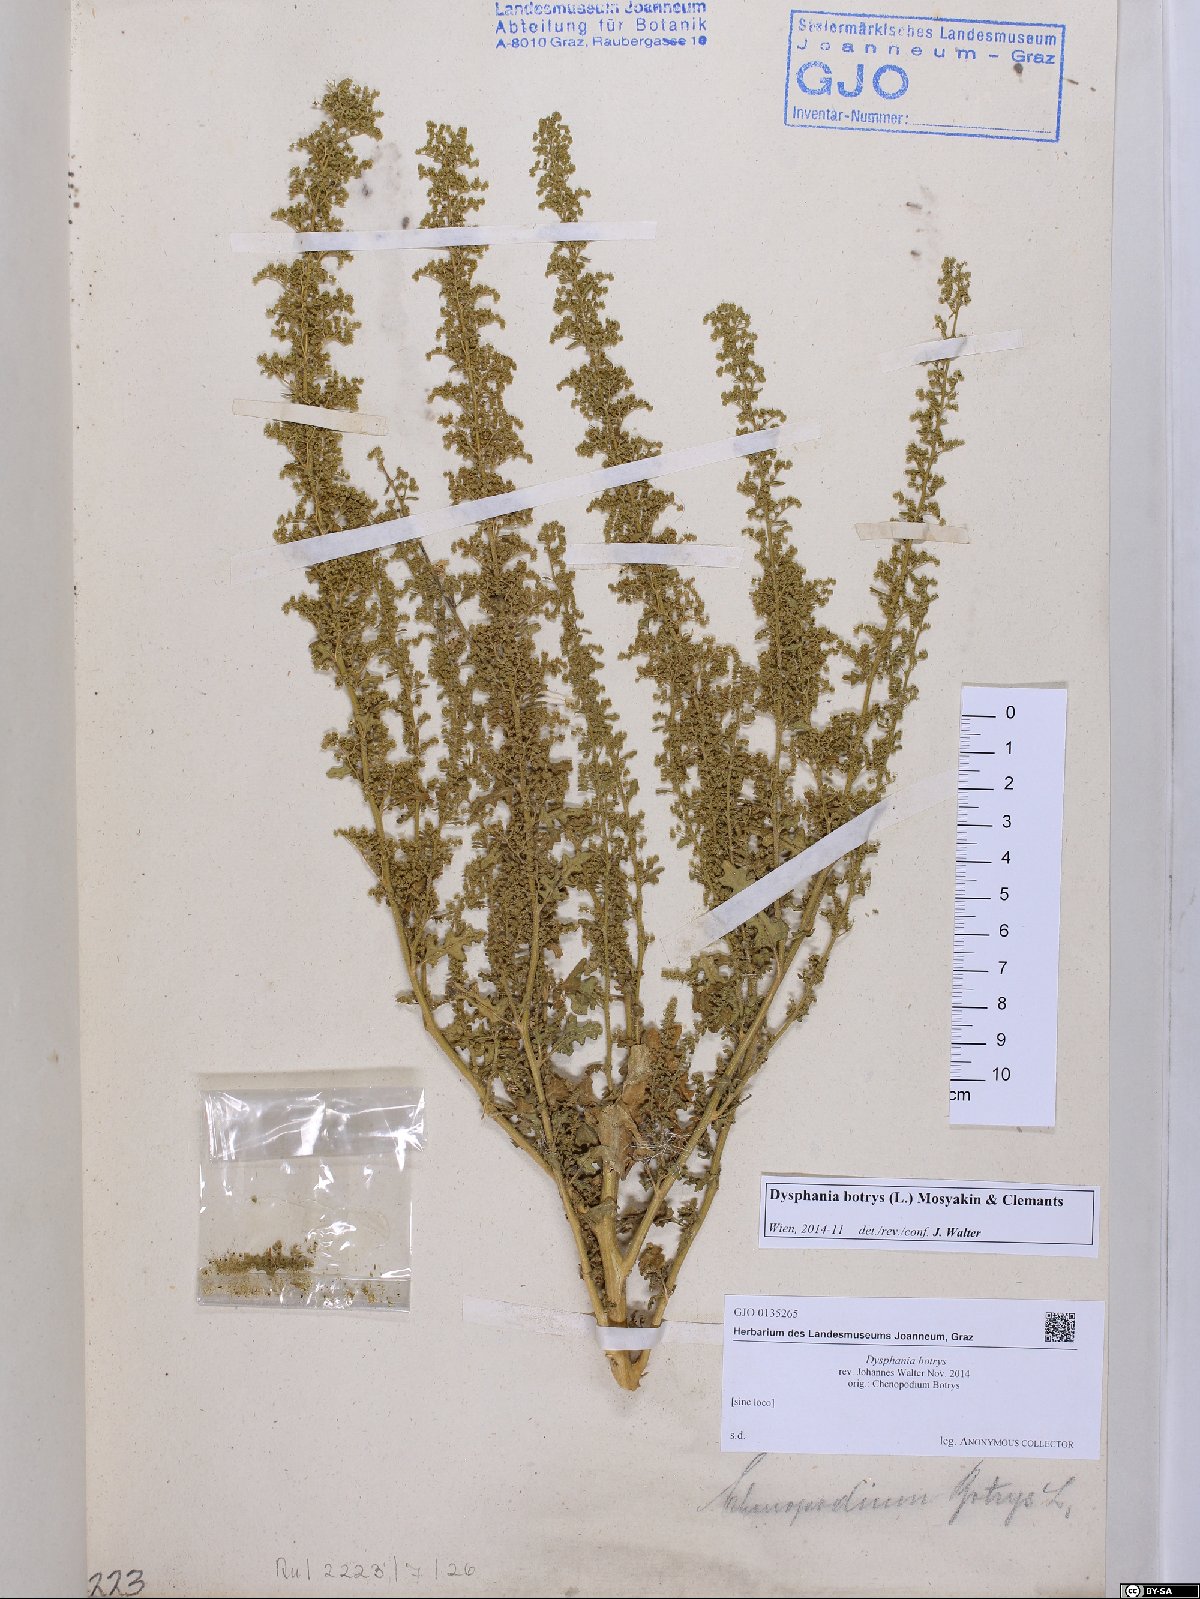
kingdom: Plantae
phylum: Tracheophyta
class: Magnoliopsida
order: Caryophyllales
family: Amaranthaceae
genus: Dysphania
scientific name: Dysphania botrys
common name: Feather-geranium
